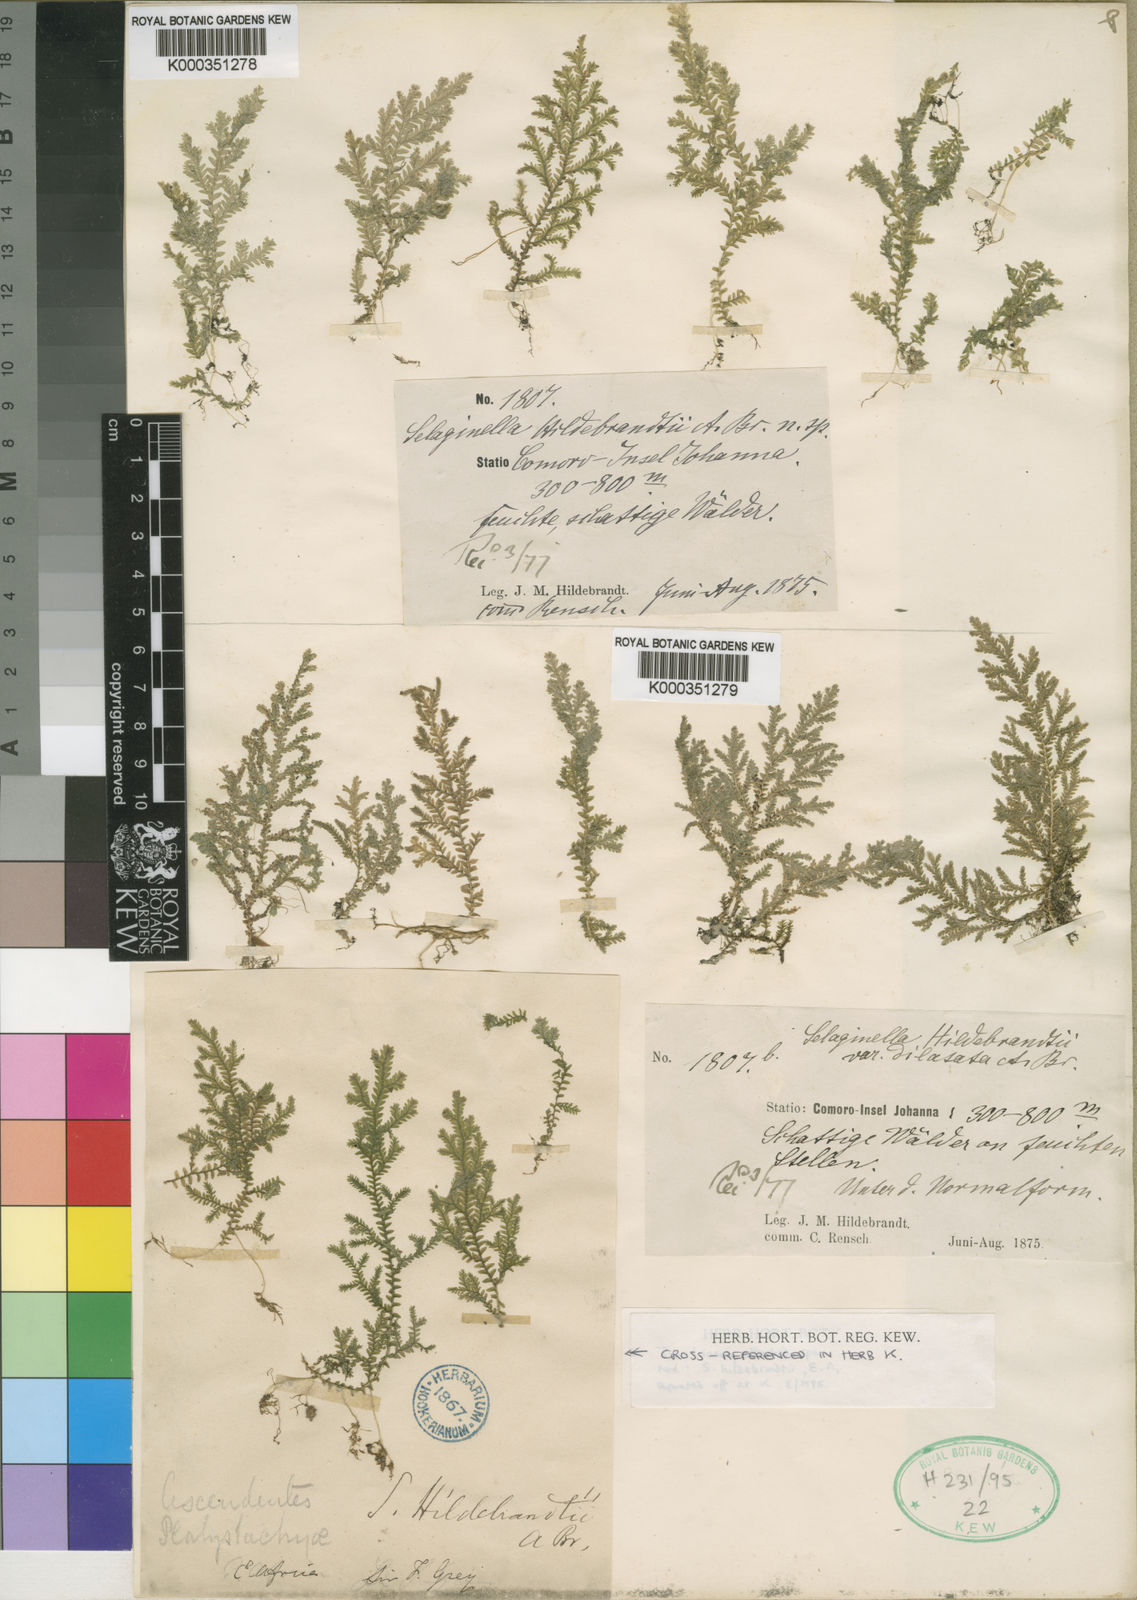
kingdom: Plantae
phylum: Tracheophyta
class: Lycopodiopsida
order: Selaginellales
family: Selaginellaceae
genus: Selaginella
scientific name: Selaginella
